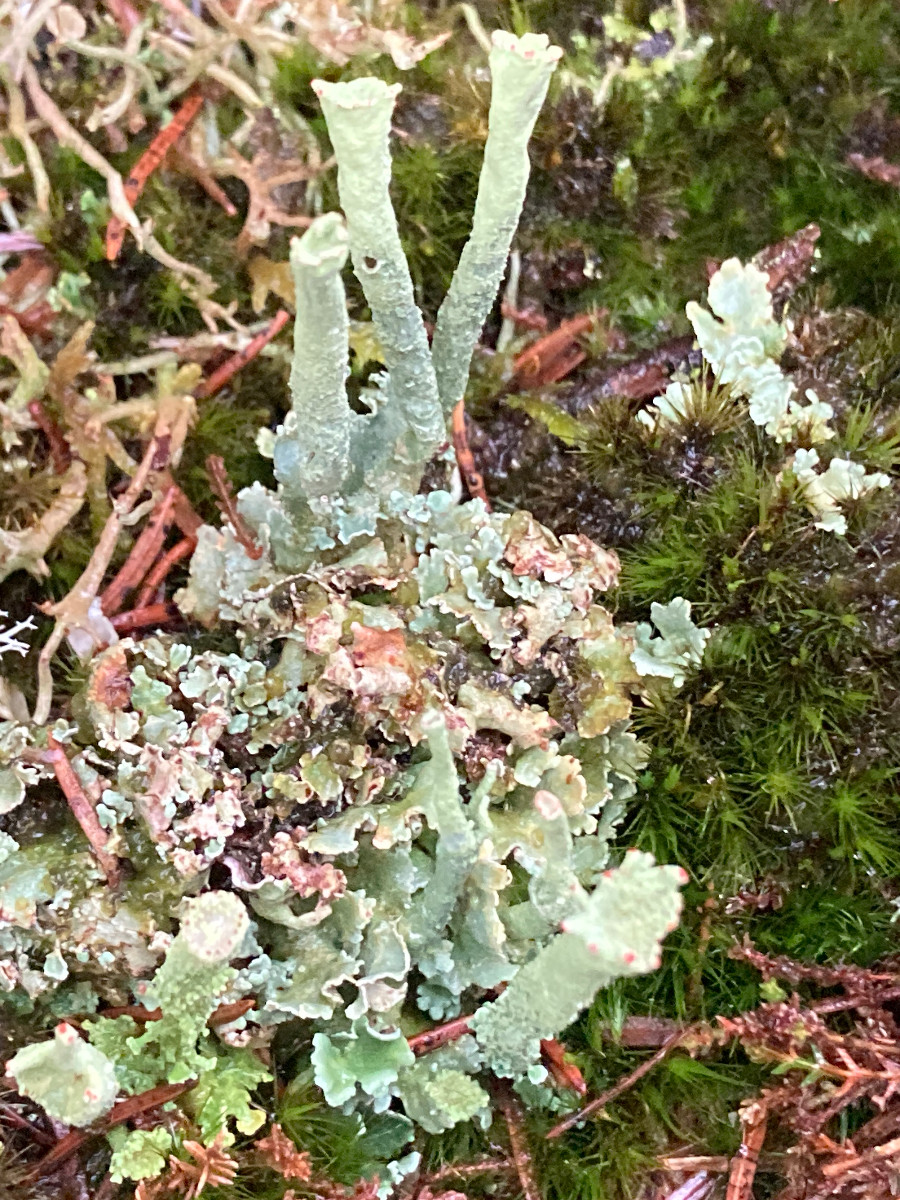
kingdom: Fungi
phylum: Ascomycota
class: Lecanoromycetes
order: Lecanorales
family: Cladoniaceae
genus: Cladonia
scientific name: Cladonia digitata
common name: finger-bægerlav
